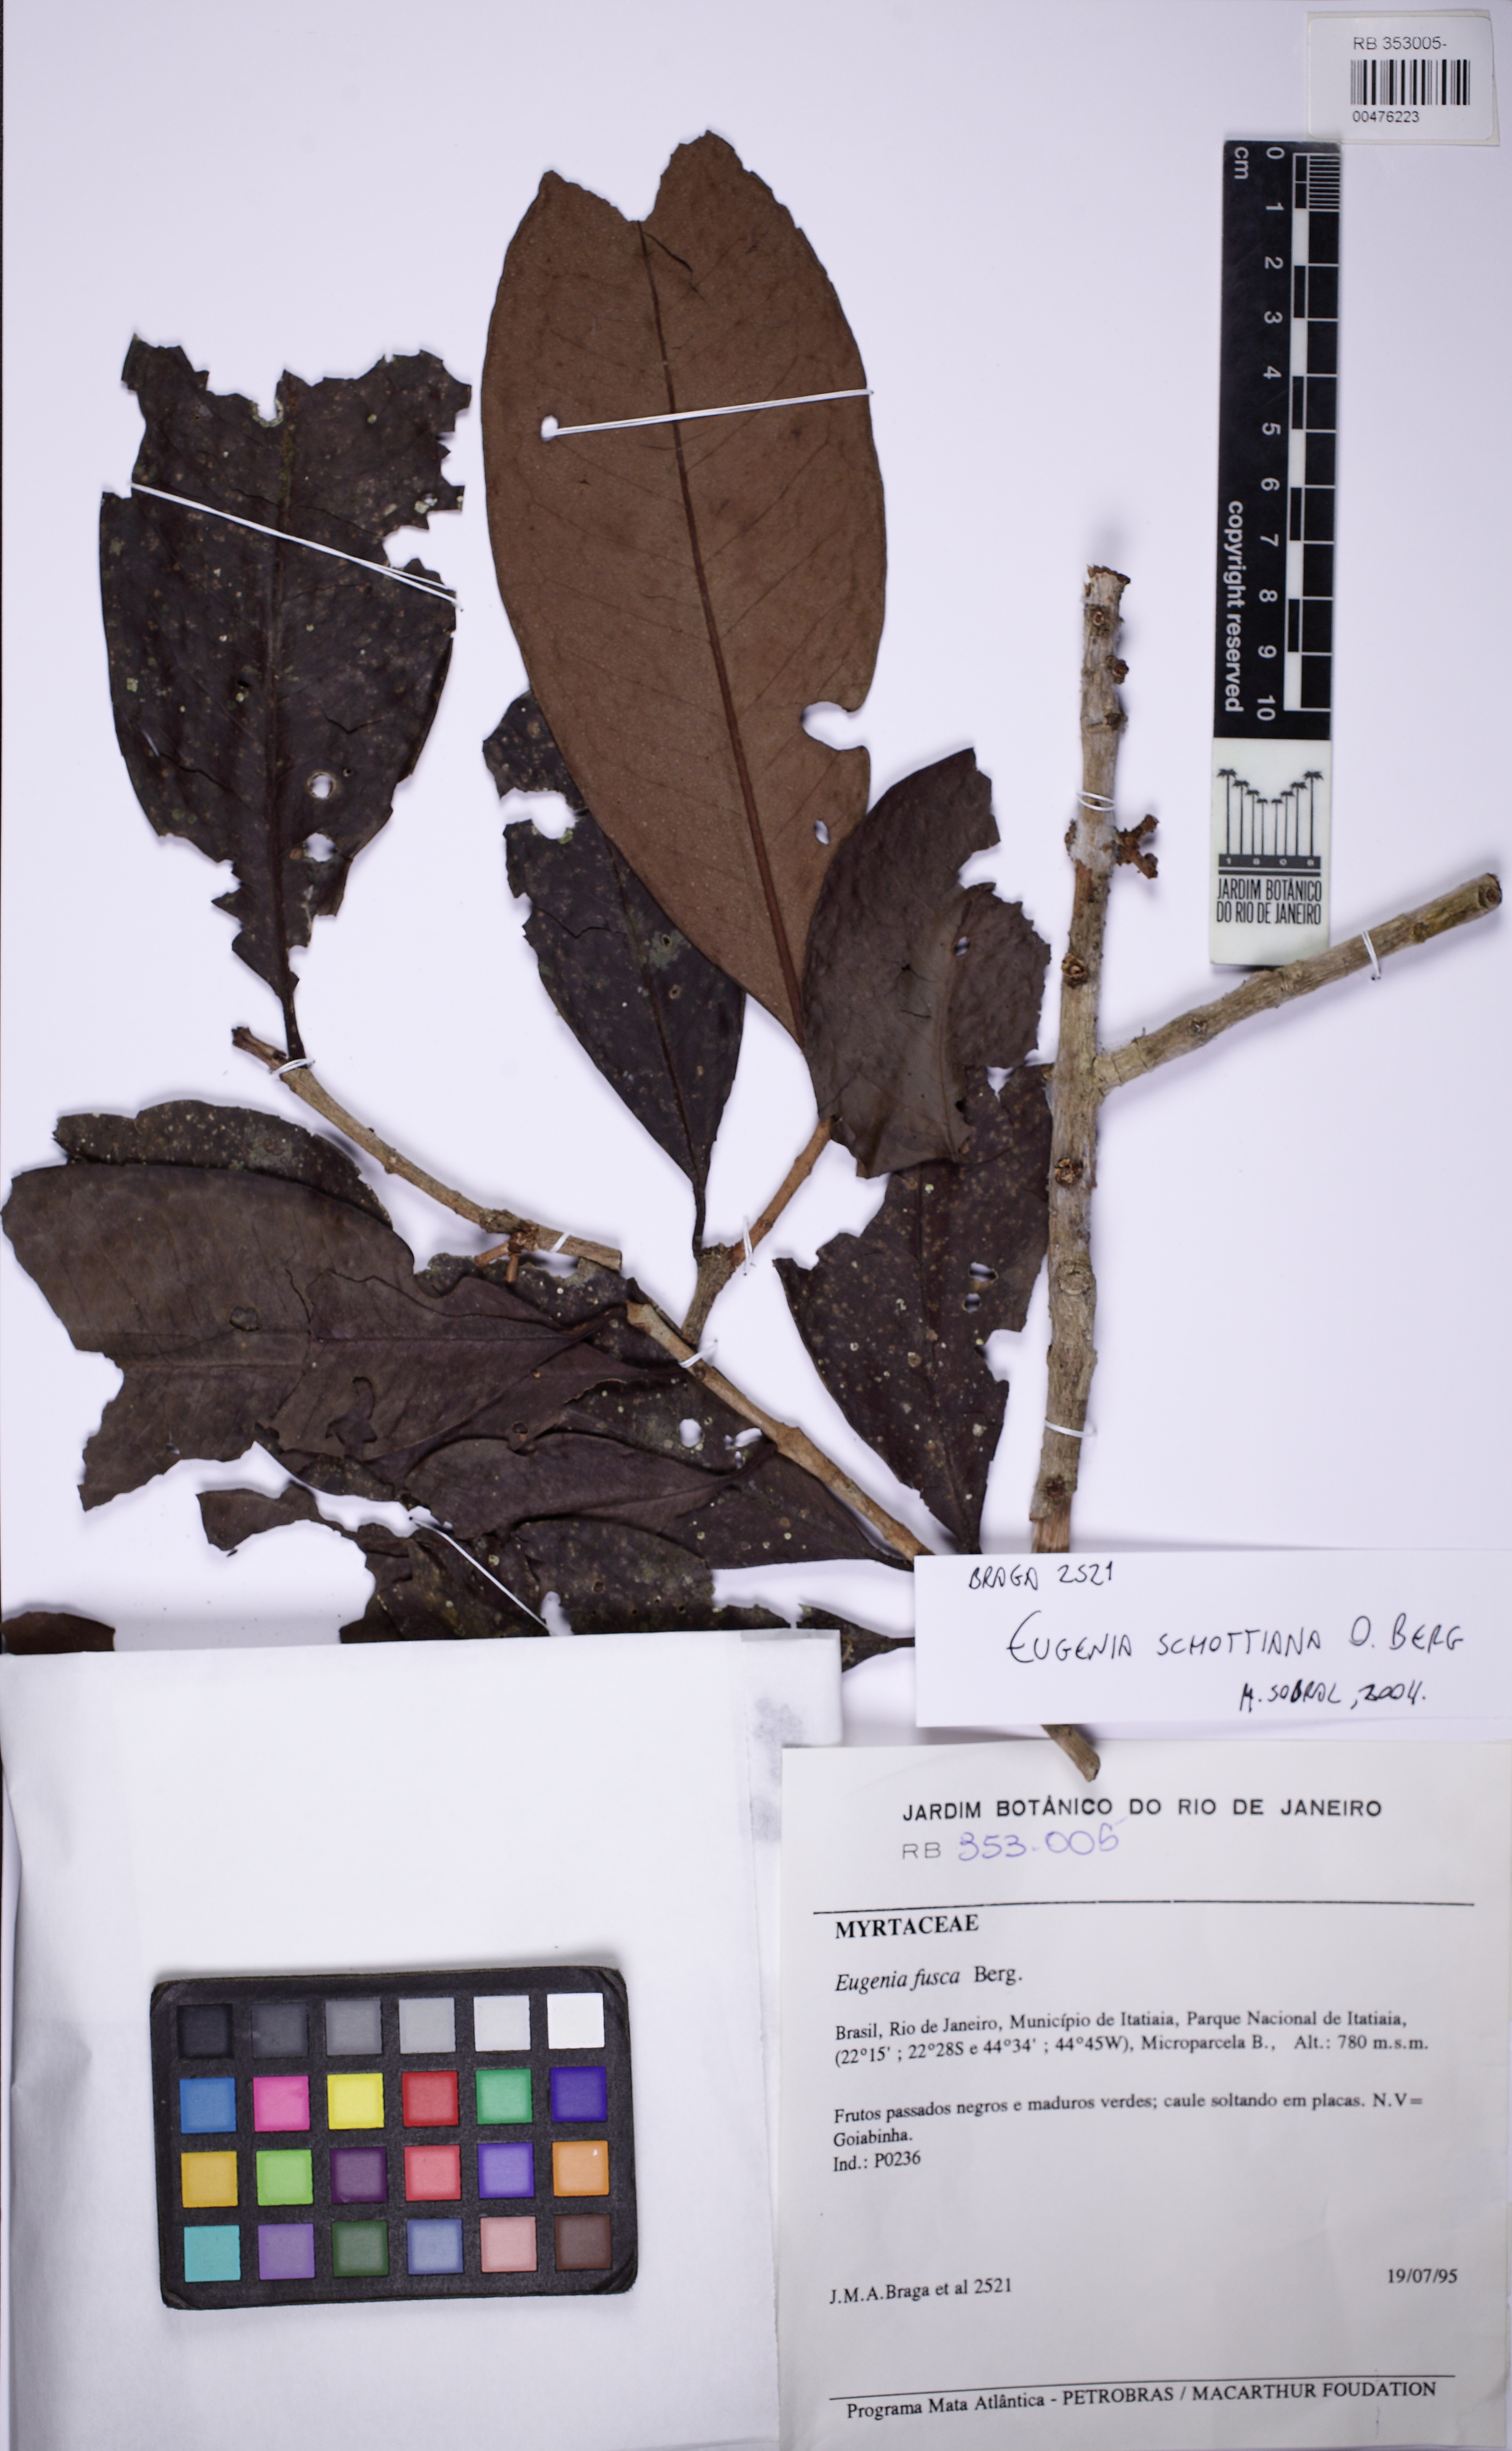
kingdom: Plantae
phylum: Tracheophyta
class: Magnoliopsida
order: Myrtales
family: Myrtaceae
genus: Eugenia
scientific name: Eugenia schuechiana
